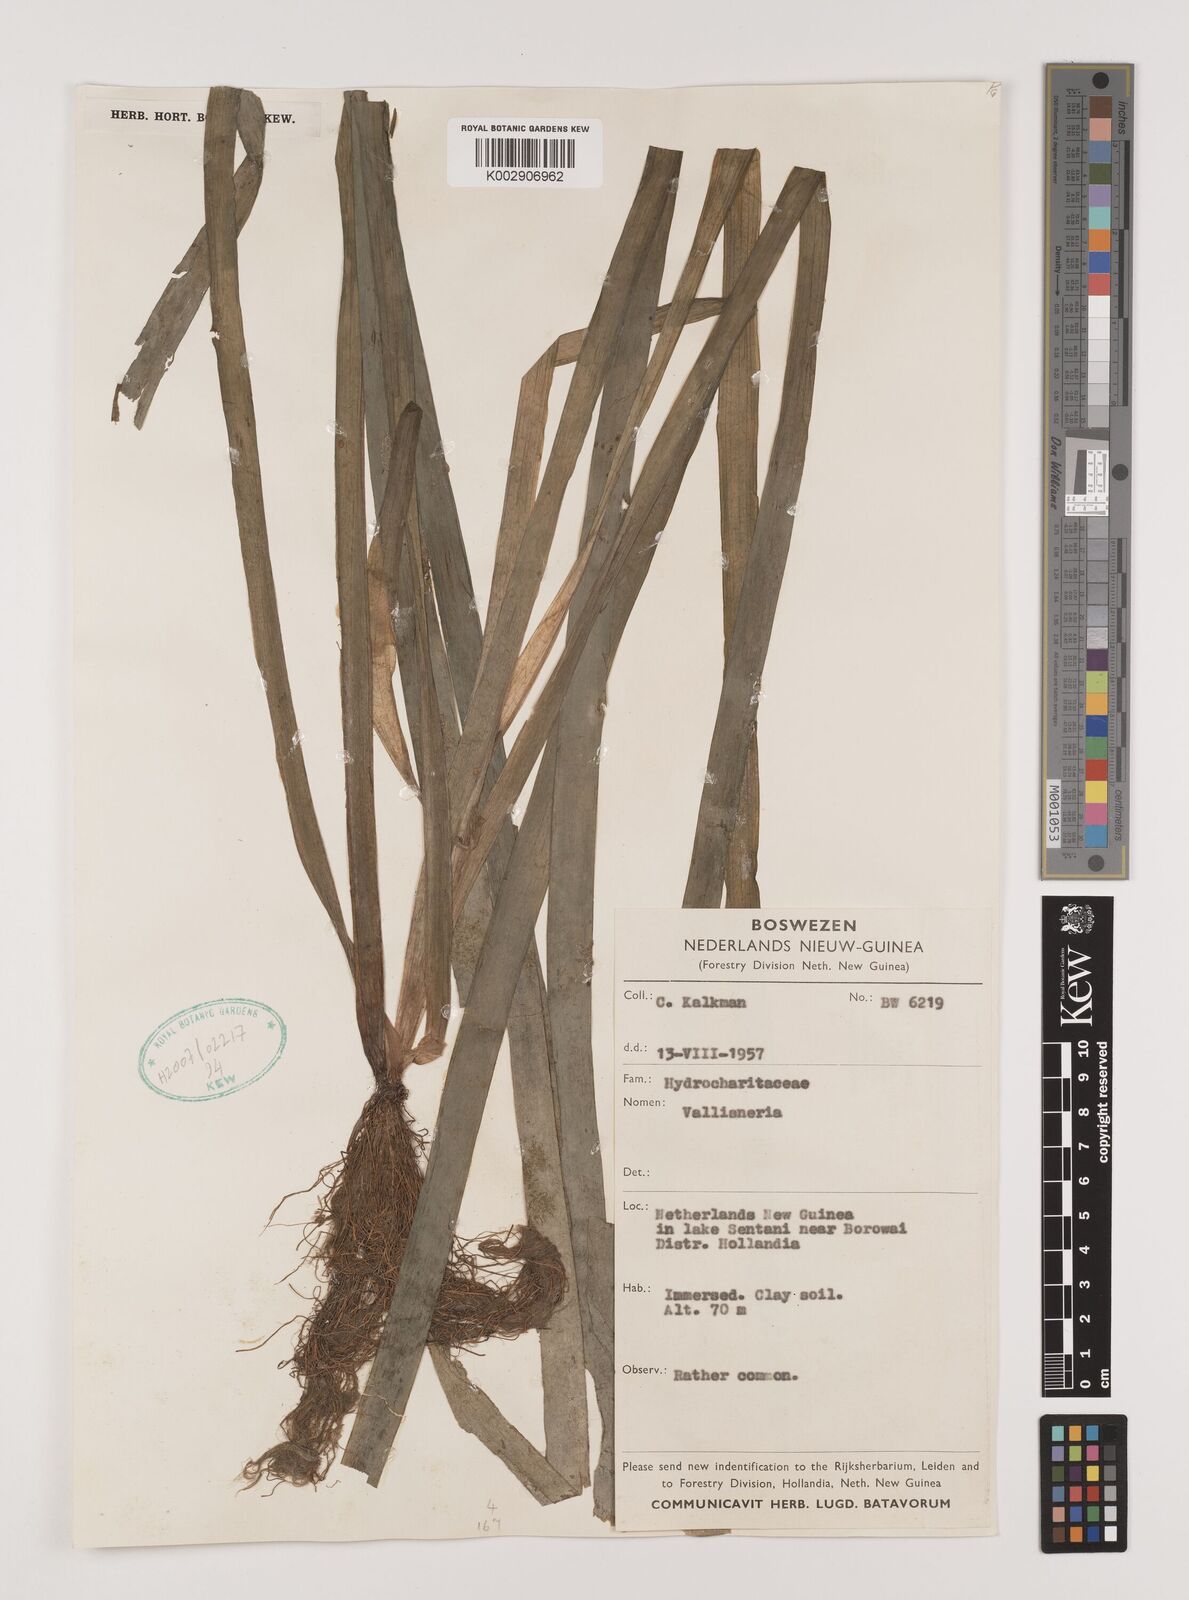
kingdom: Plantae
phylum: Tracheophyta
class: Liliopsida
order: Alismatales
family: Hydrocharitaceae
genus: Vallisneria
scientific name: Vallisneria
